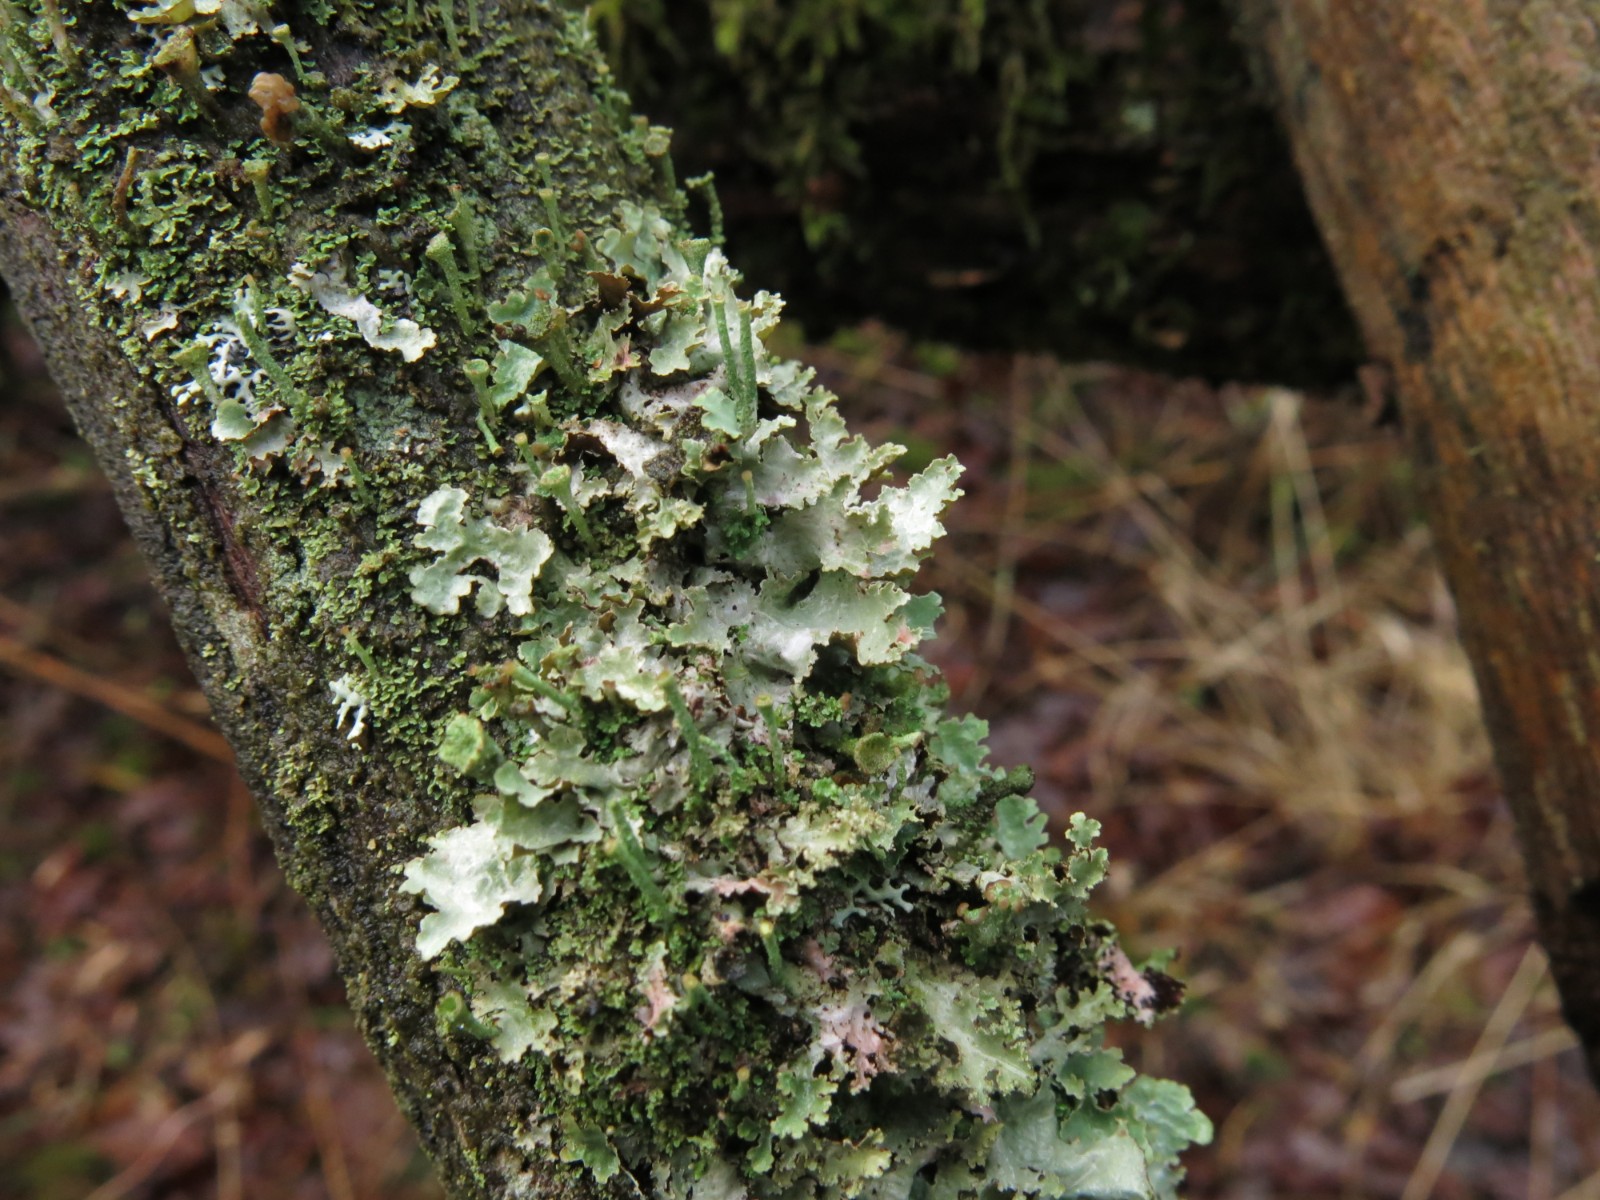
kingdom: Fungi
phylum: Ascomycota
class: Lecanoromycetes
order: Lecanorales
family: Parmeliaceae
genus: Platismatia
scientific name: Platismatia glauca
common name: blågrå papirlav
